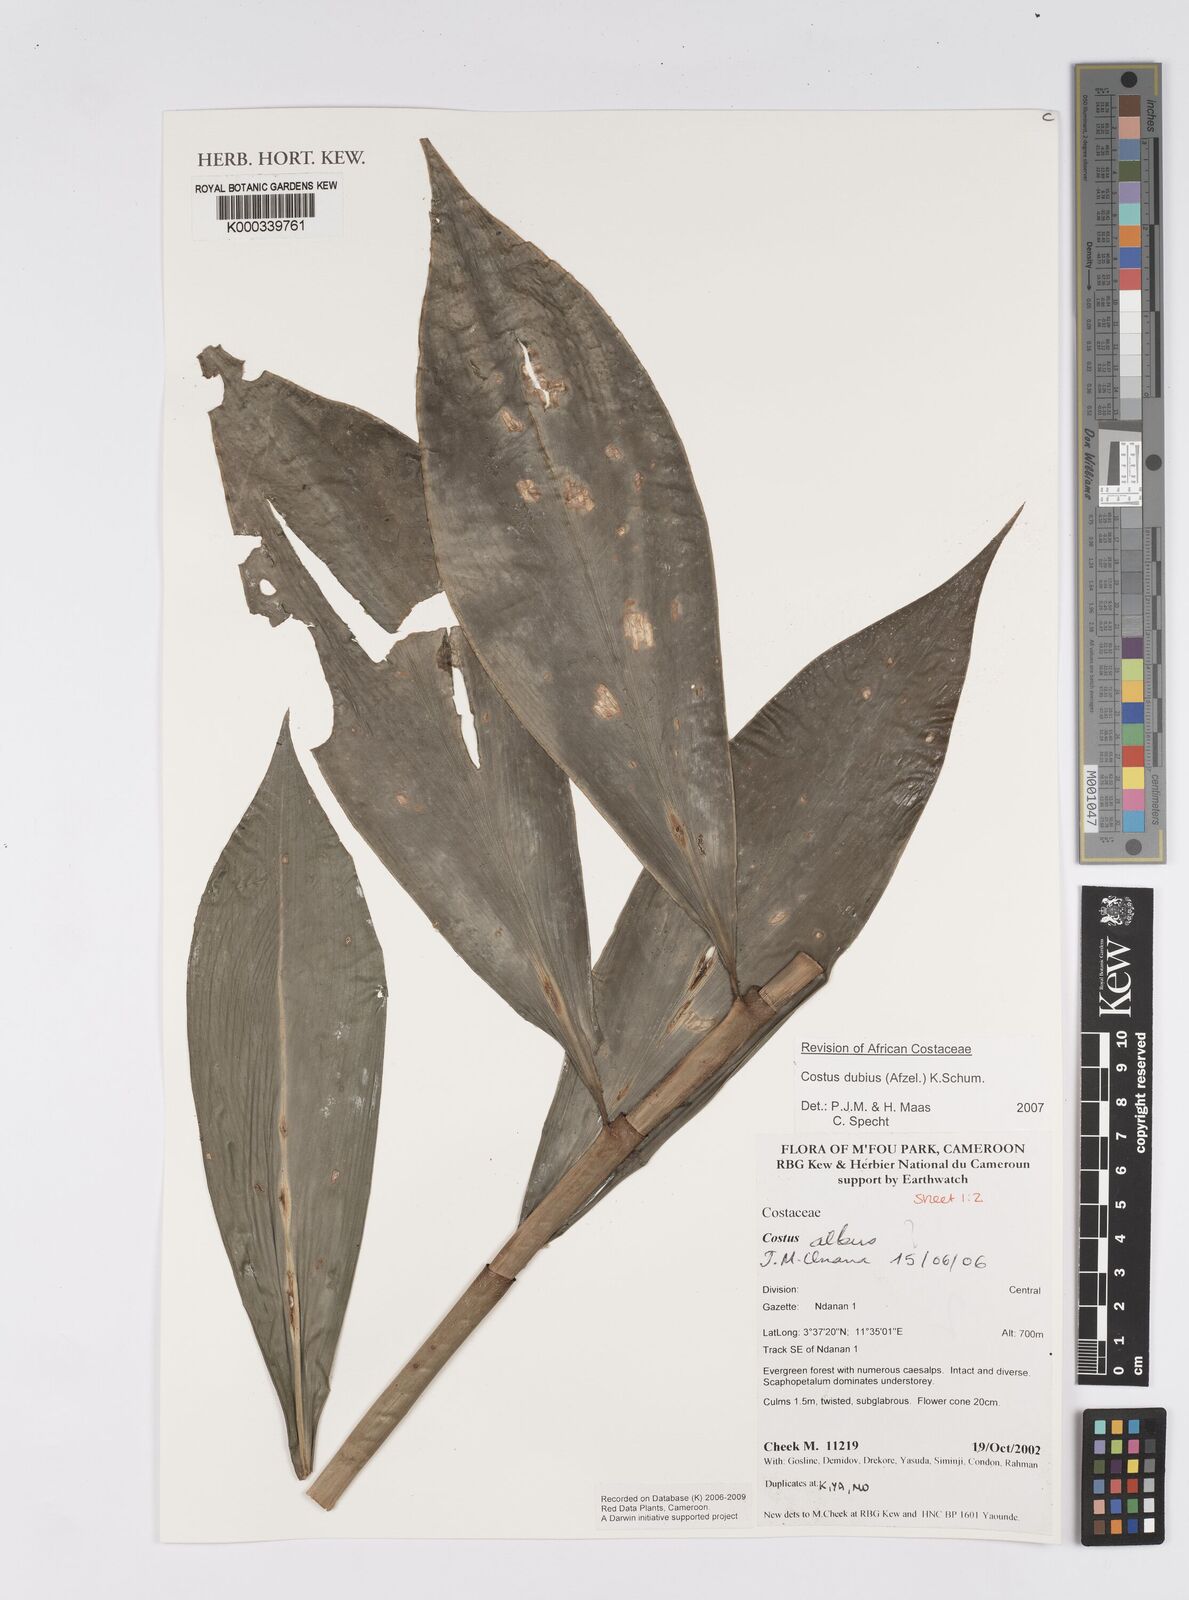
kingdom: Plantae
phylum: Tracheophyta
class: Liliopsida
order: Zingiberales
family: Costaceae
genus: Costus
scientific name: Costus dubius
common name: Costus
